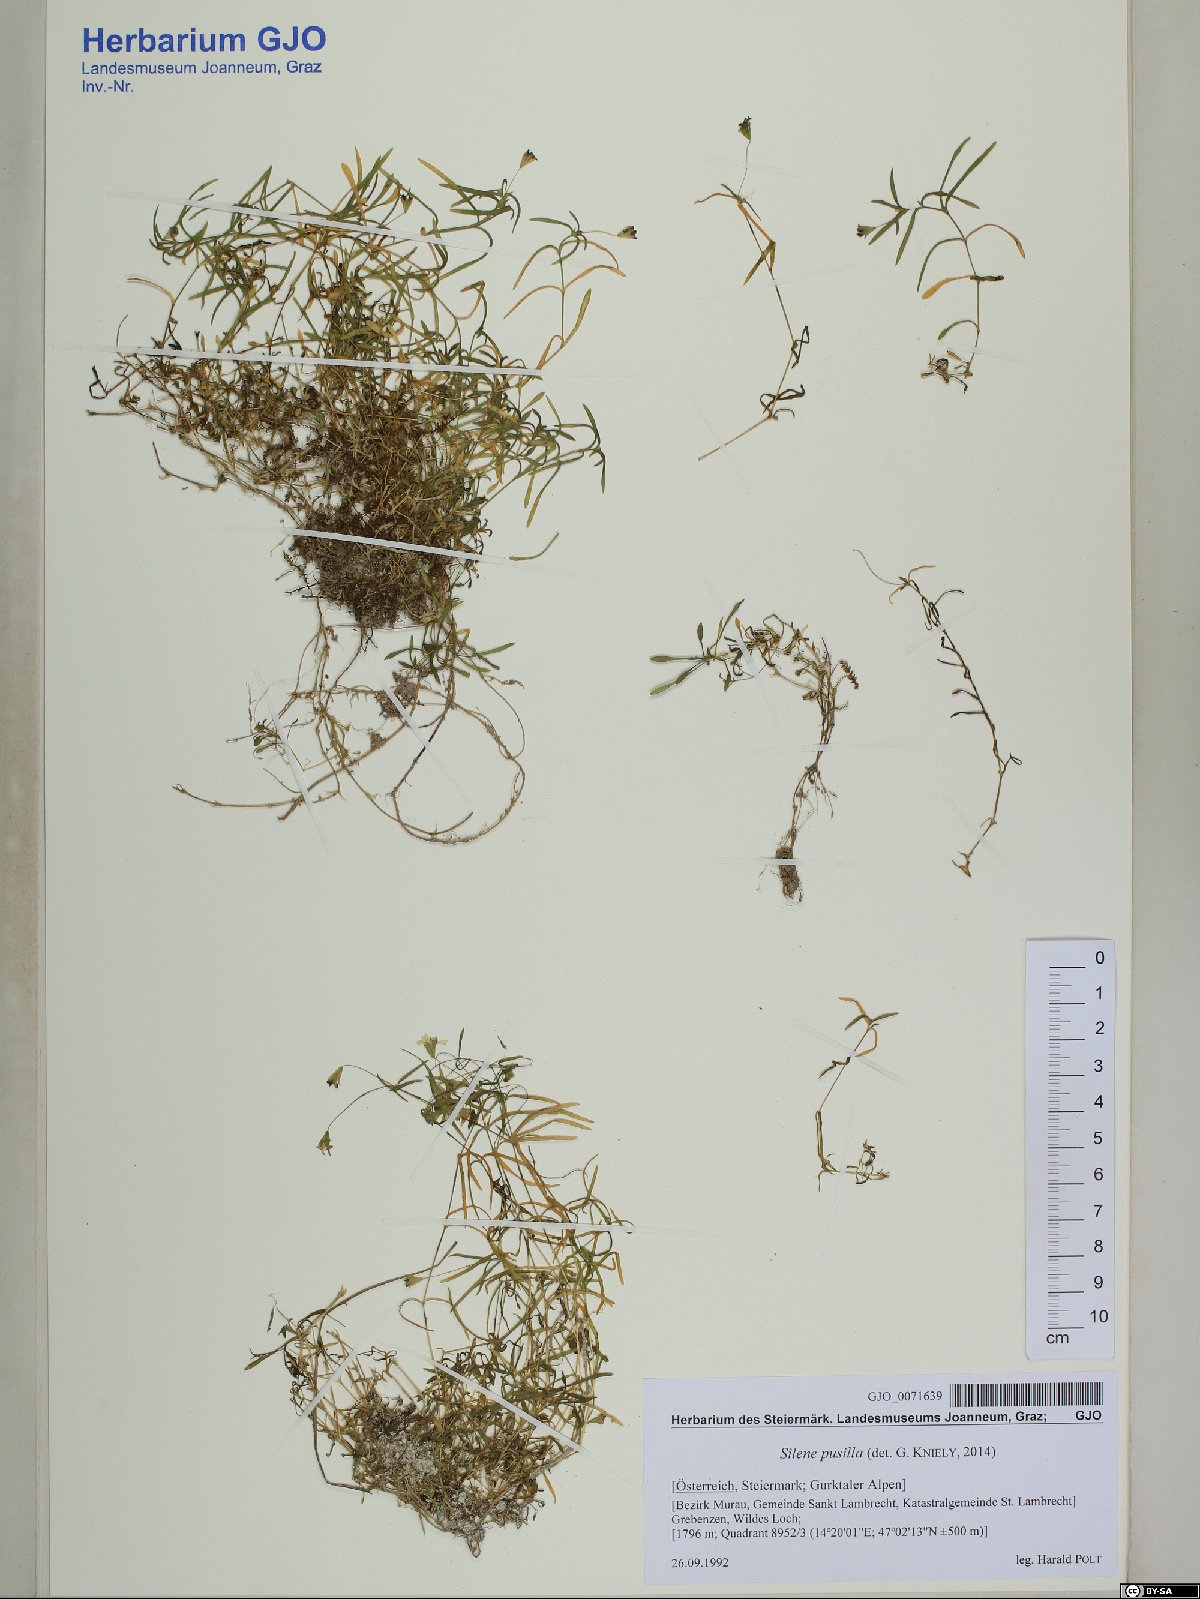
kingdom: Plantae
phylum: Tracheophyta
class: Magnoliopsida
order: Caryophyllales
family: Caryophyllaceae
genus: Heliosperma
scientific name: Heliosperma pusillum
